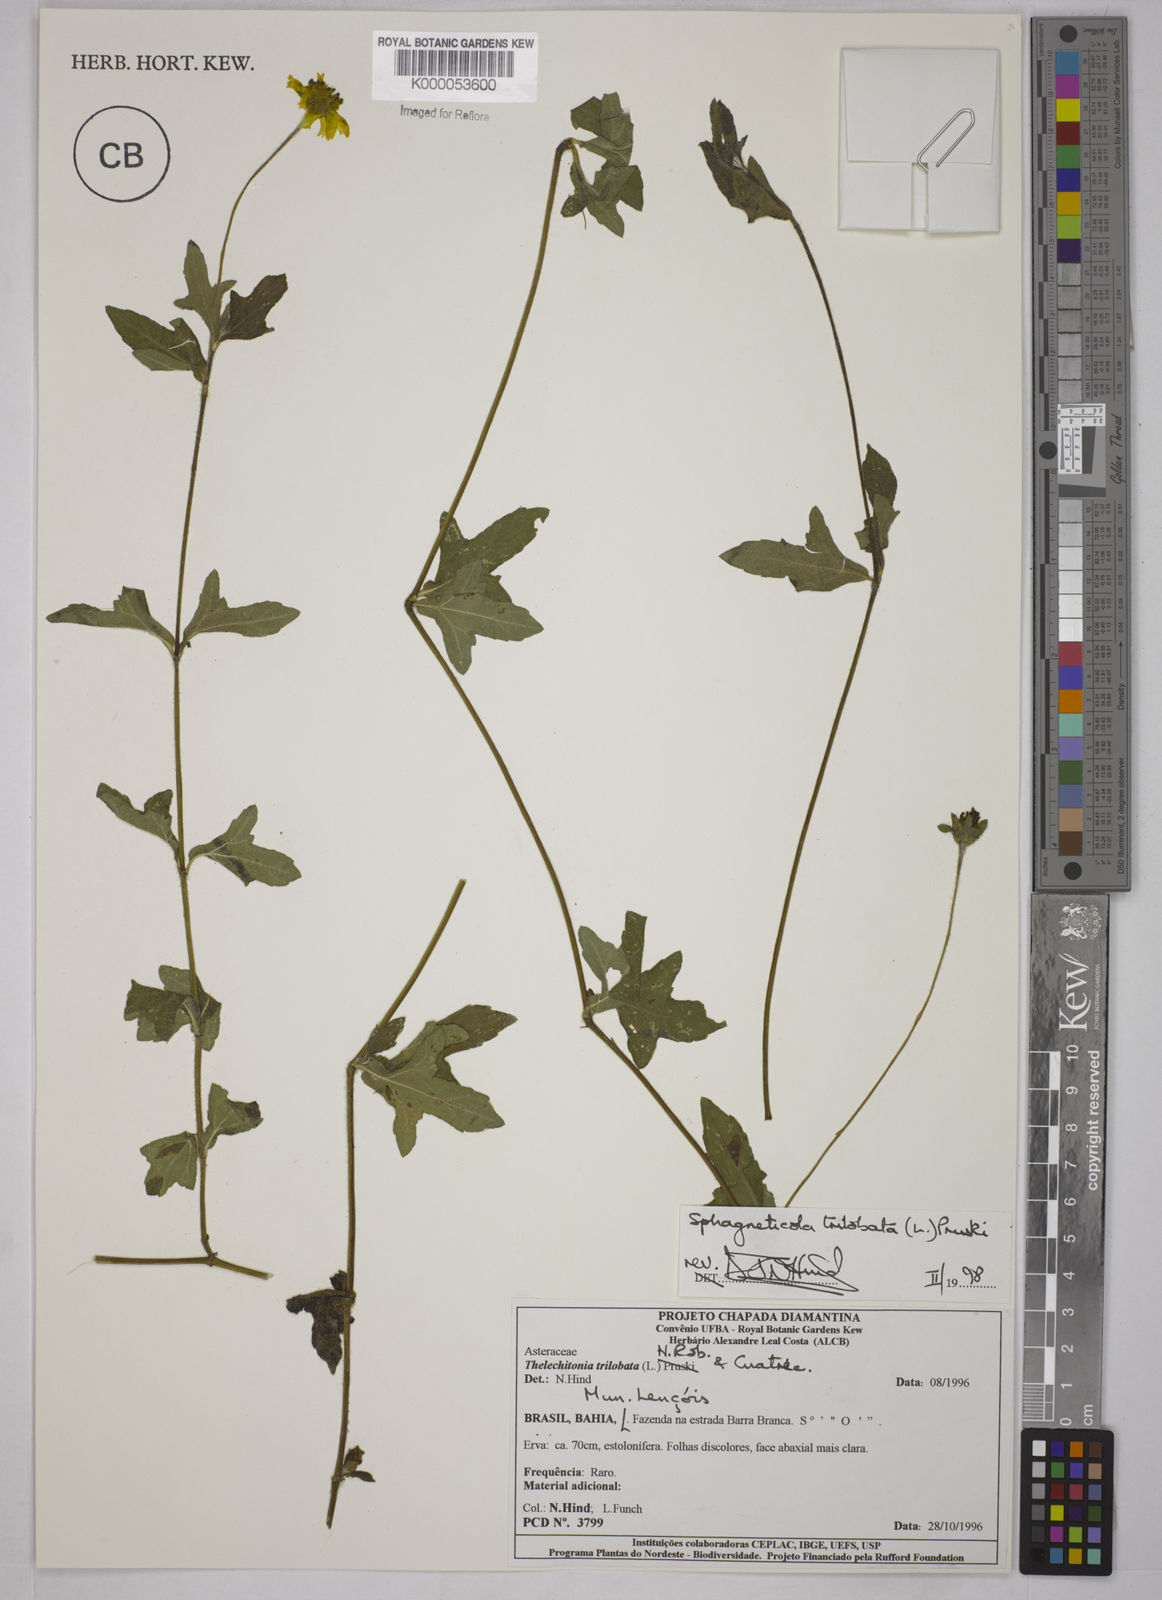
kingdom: Plantae
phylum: Tracheophyta
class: Magnoliopsida
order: Asterales
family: Asteraceae
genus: Sphagneticola
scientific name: Sphagneticola trilobata
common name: Bay biscayne creeping-oxeye
